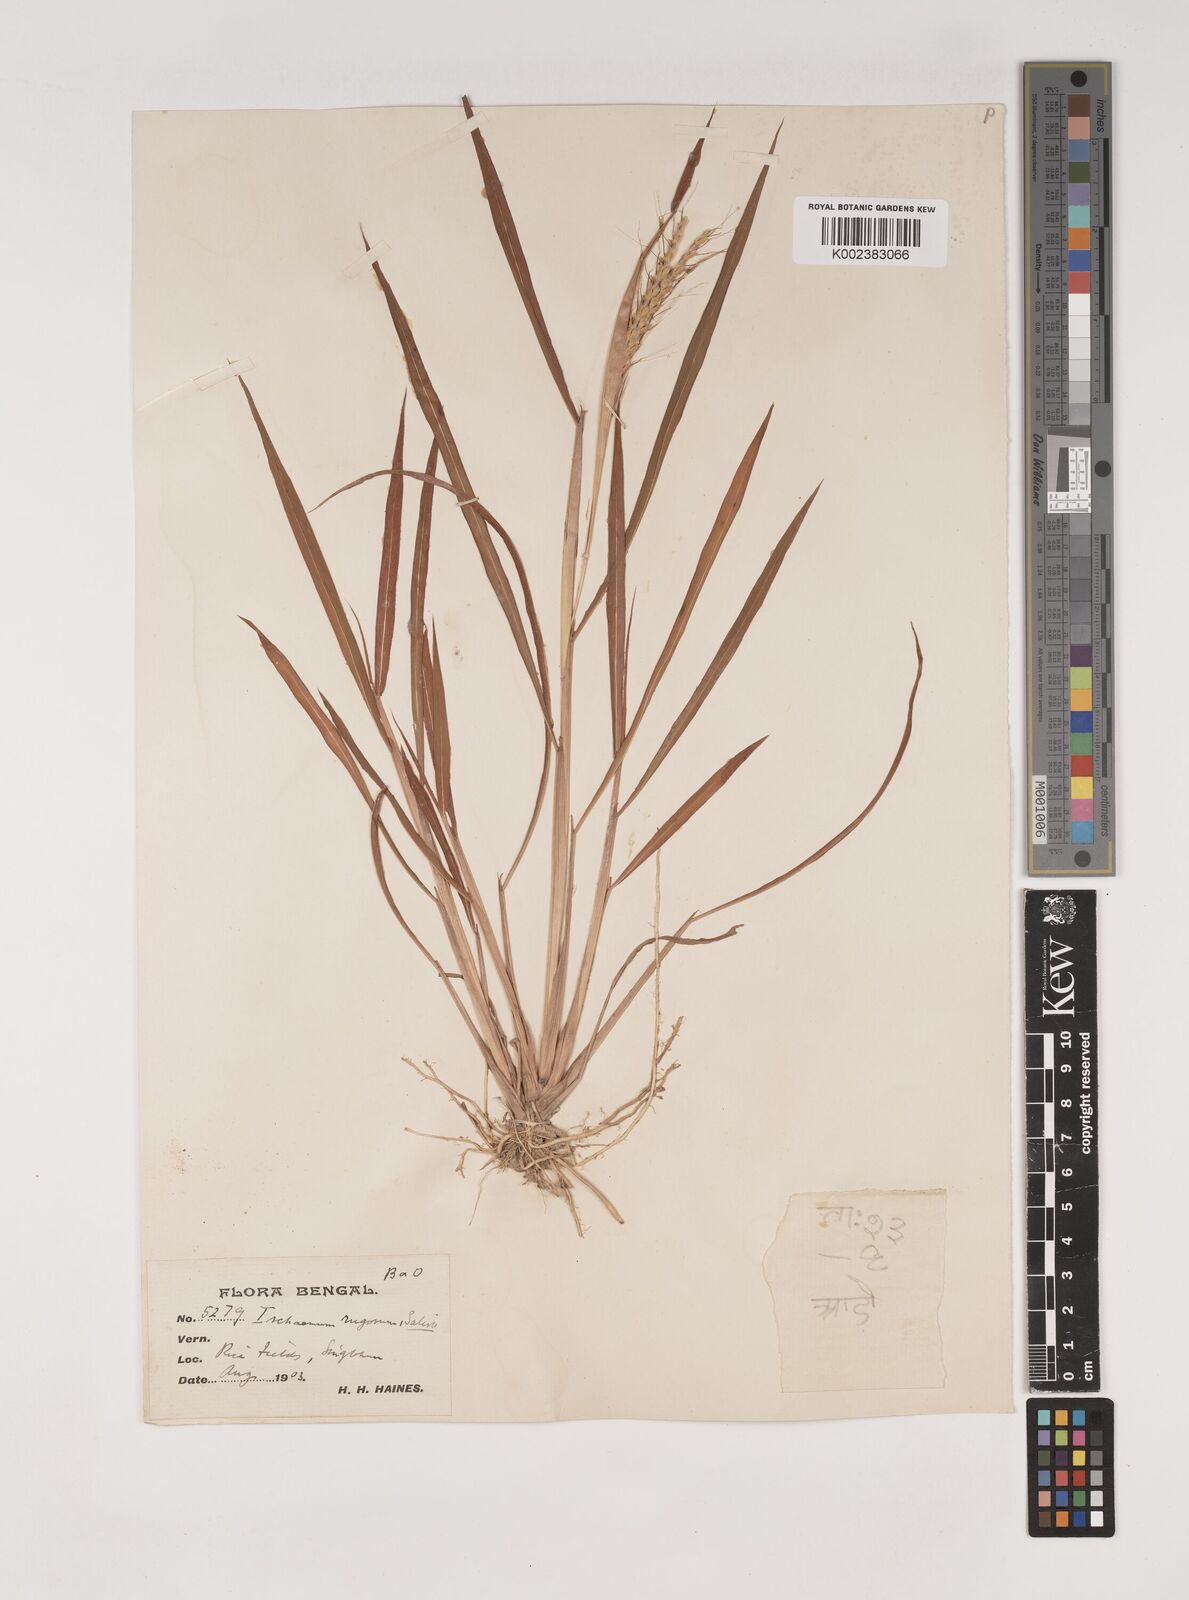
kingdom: Plantae
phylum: Tracheophyta
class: Liliopsida
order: Poales
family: Poaceae
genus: Ischaemum
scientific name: Ischaemum rugosum
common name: Saramatta grass
